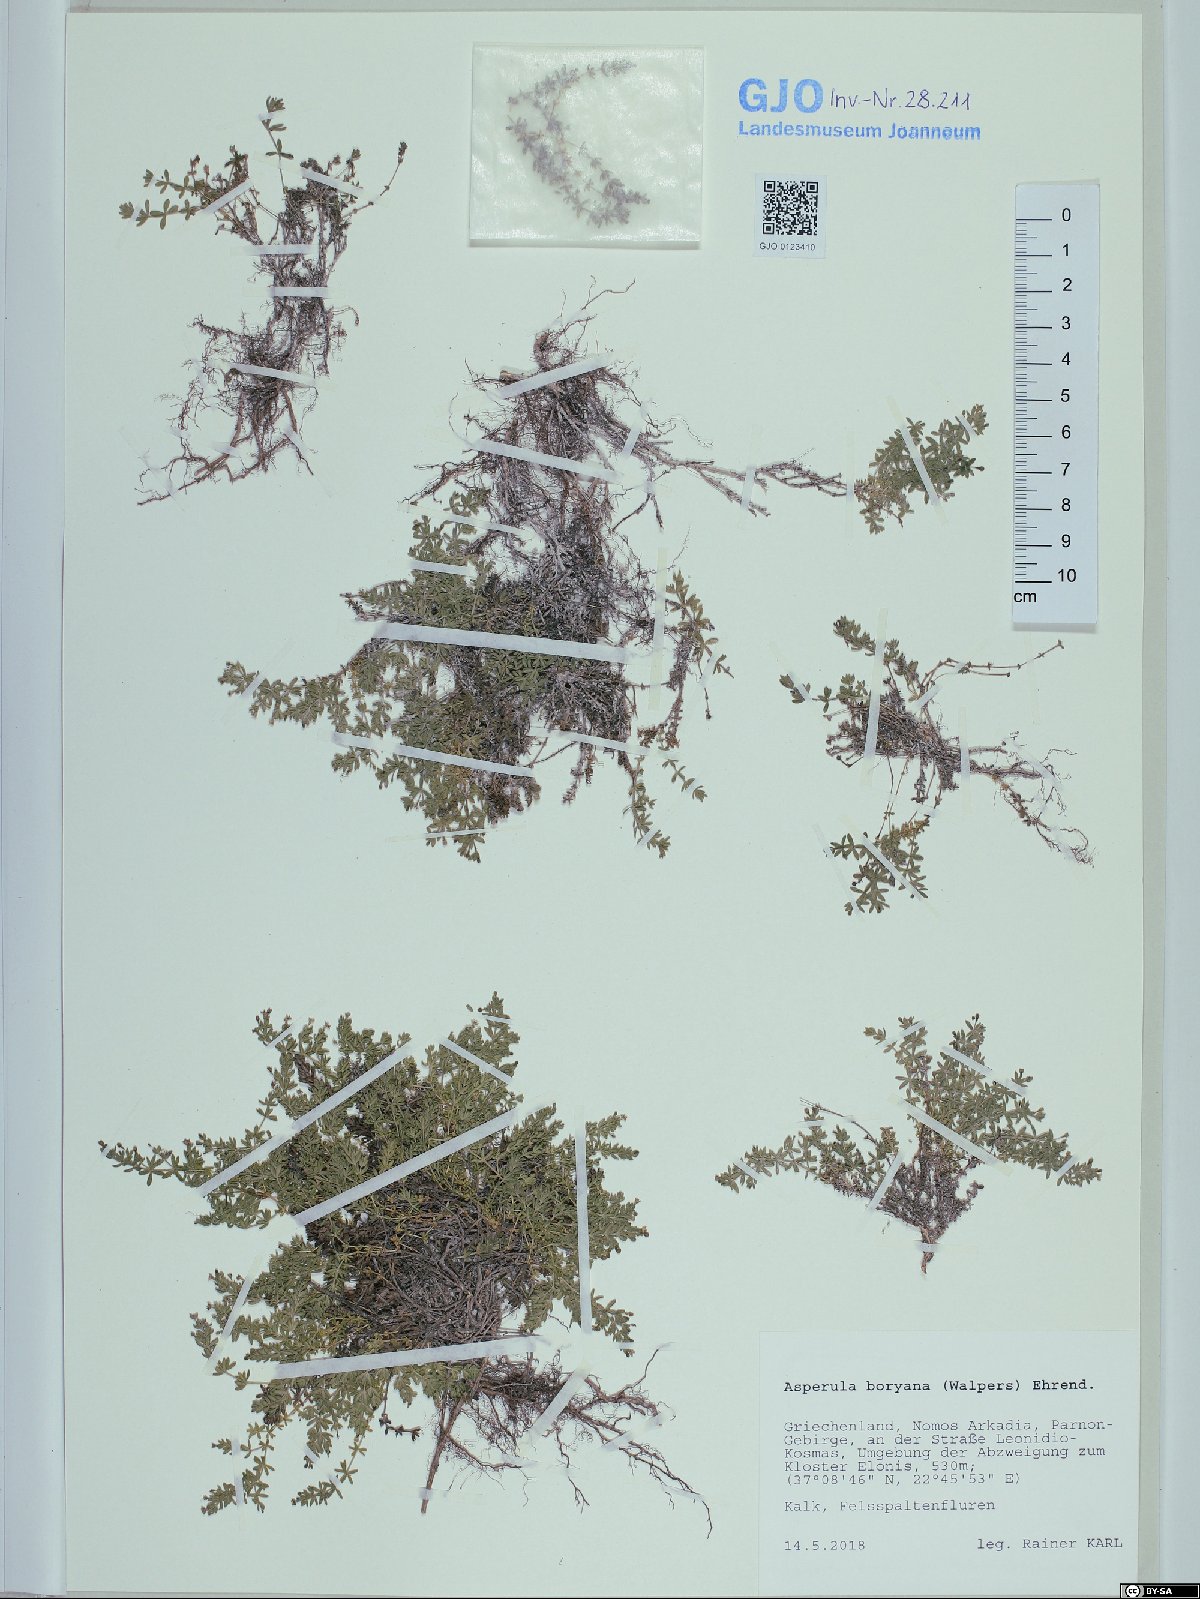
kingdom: Plantae
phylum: Tracheophyta
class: Magnoliopsida
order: Gentianales
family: Rubiaceae
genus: Thliphthisa
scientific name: Thliphthisa pusilla
